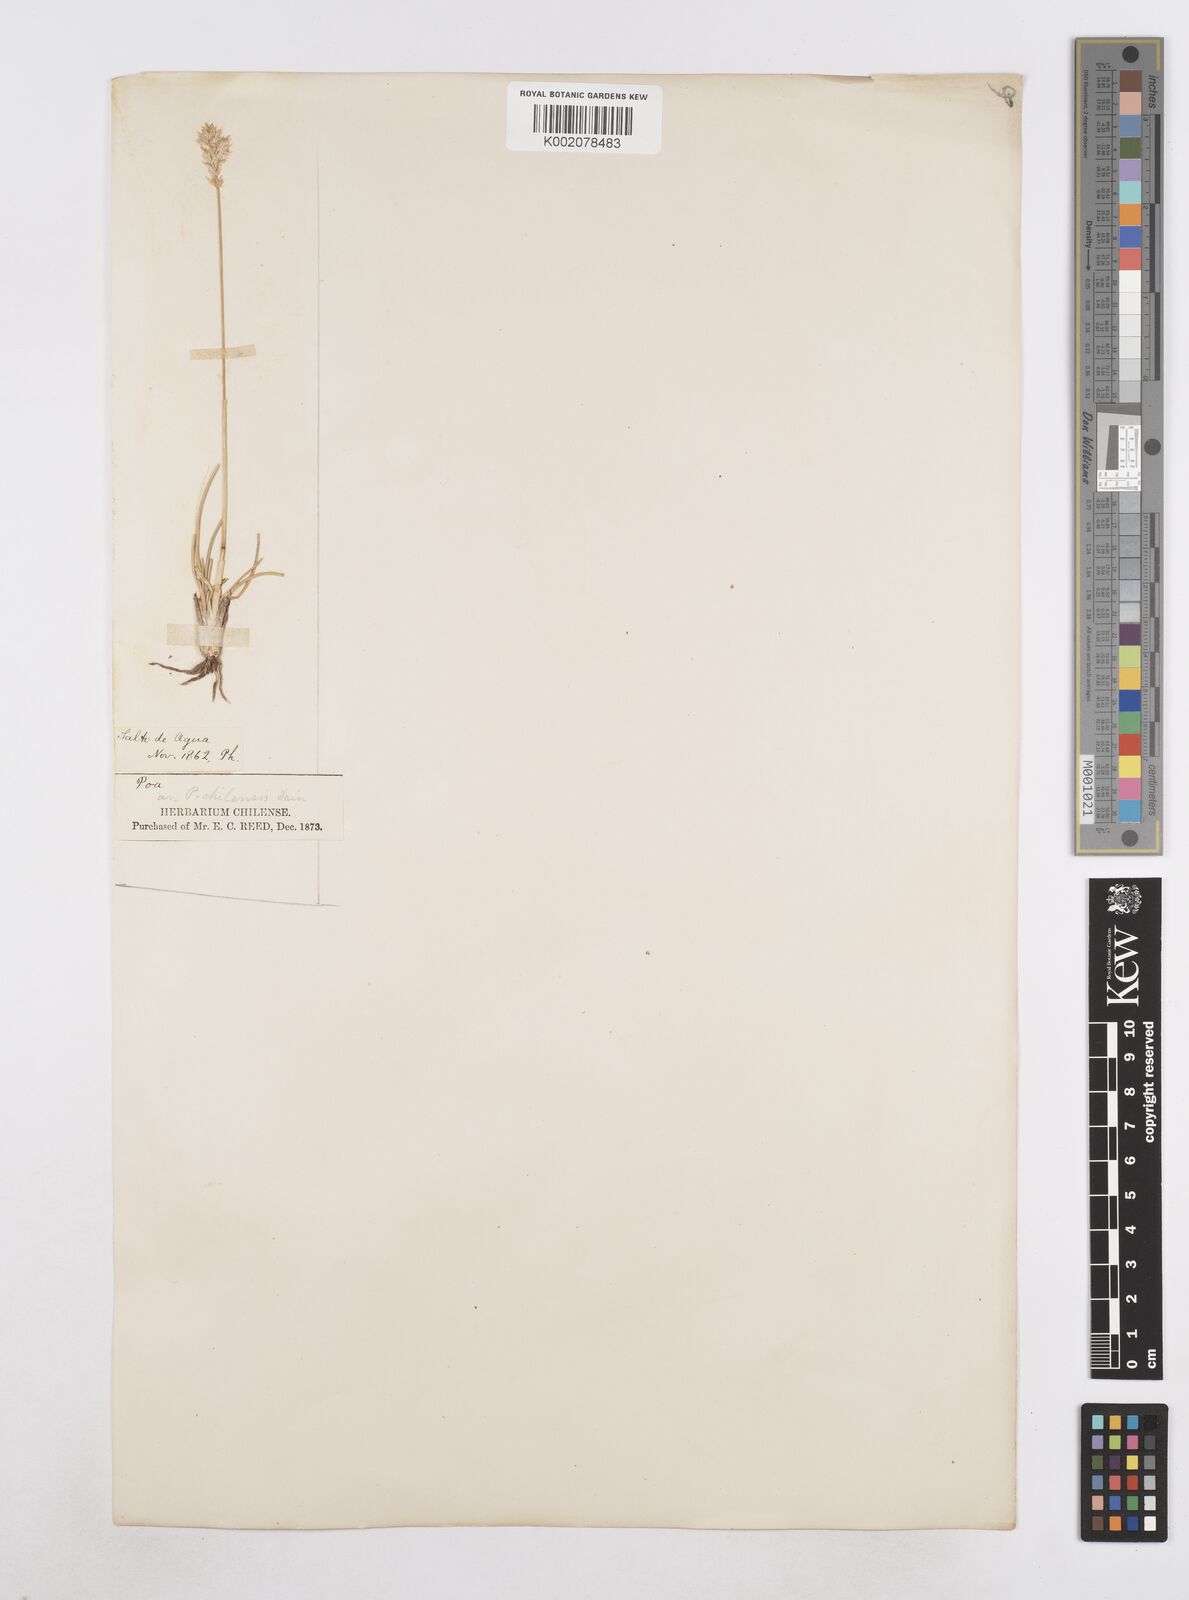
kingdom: Plantae
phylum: Tracheophyta
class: Liliopsida
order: Poales
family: Poaceae
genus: Poa
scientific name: Poa denudata
